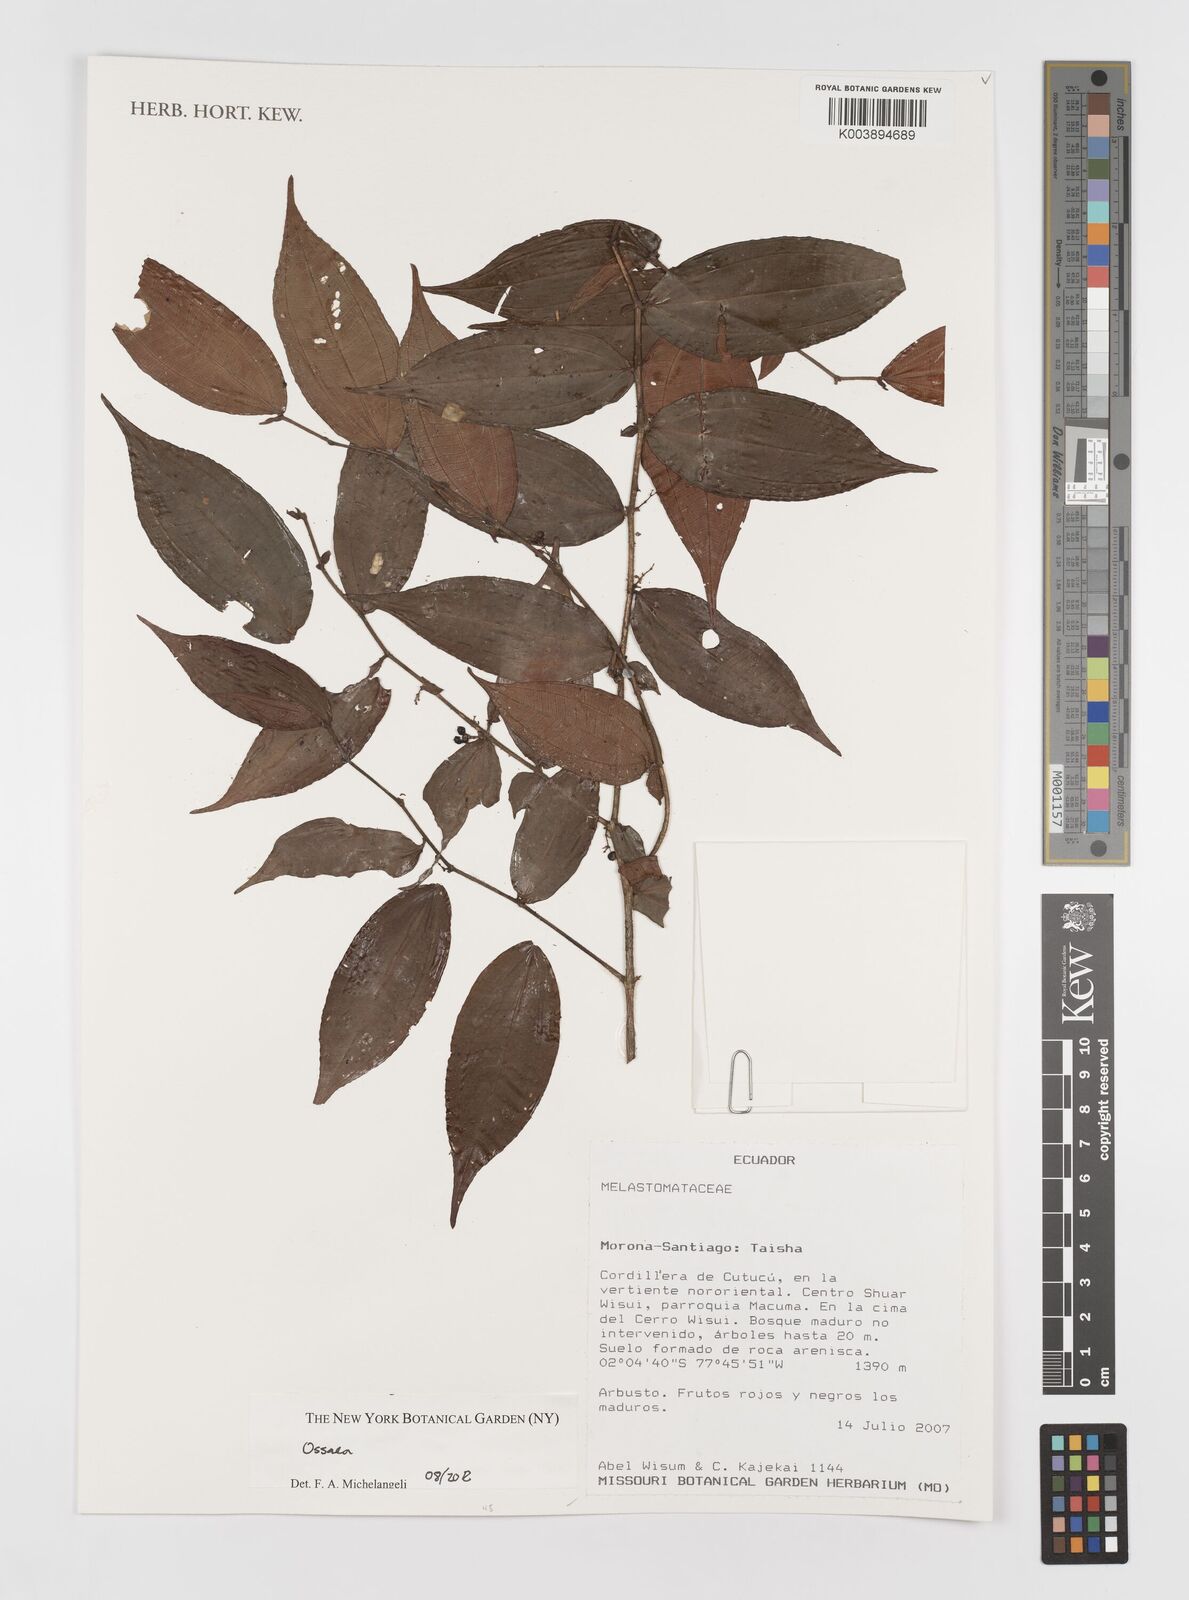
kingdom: Plantae
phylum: Tracheophyta
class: Magnoliopsida
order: Myrtales
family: Melastomataceae
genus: Ossaea
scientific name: Ossaea
